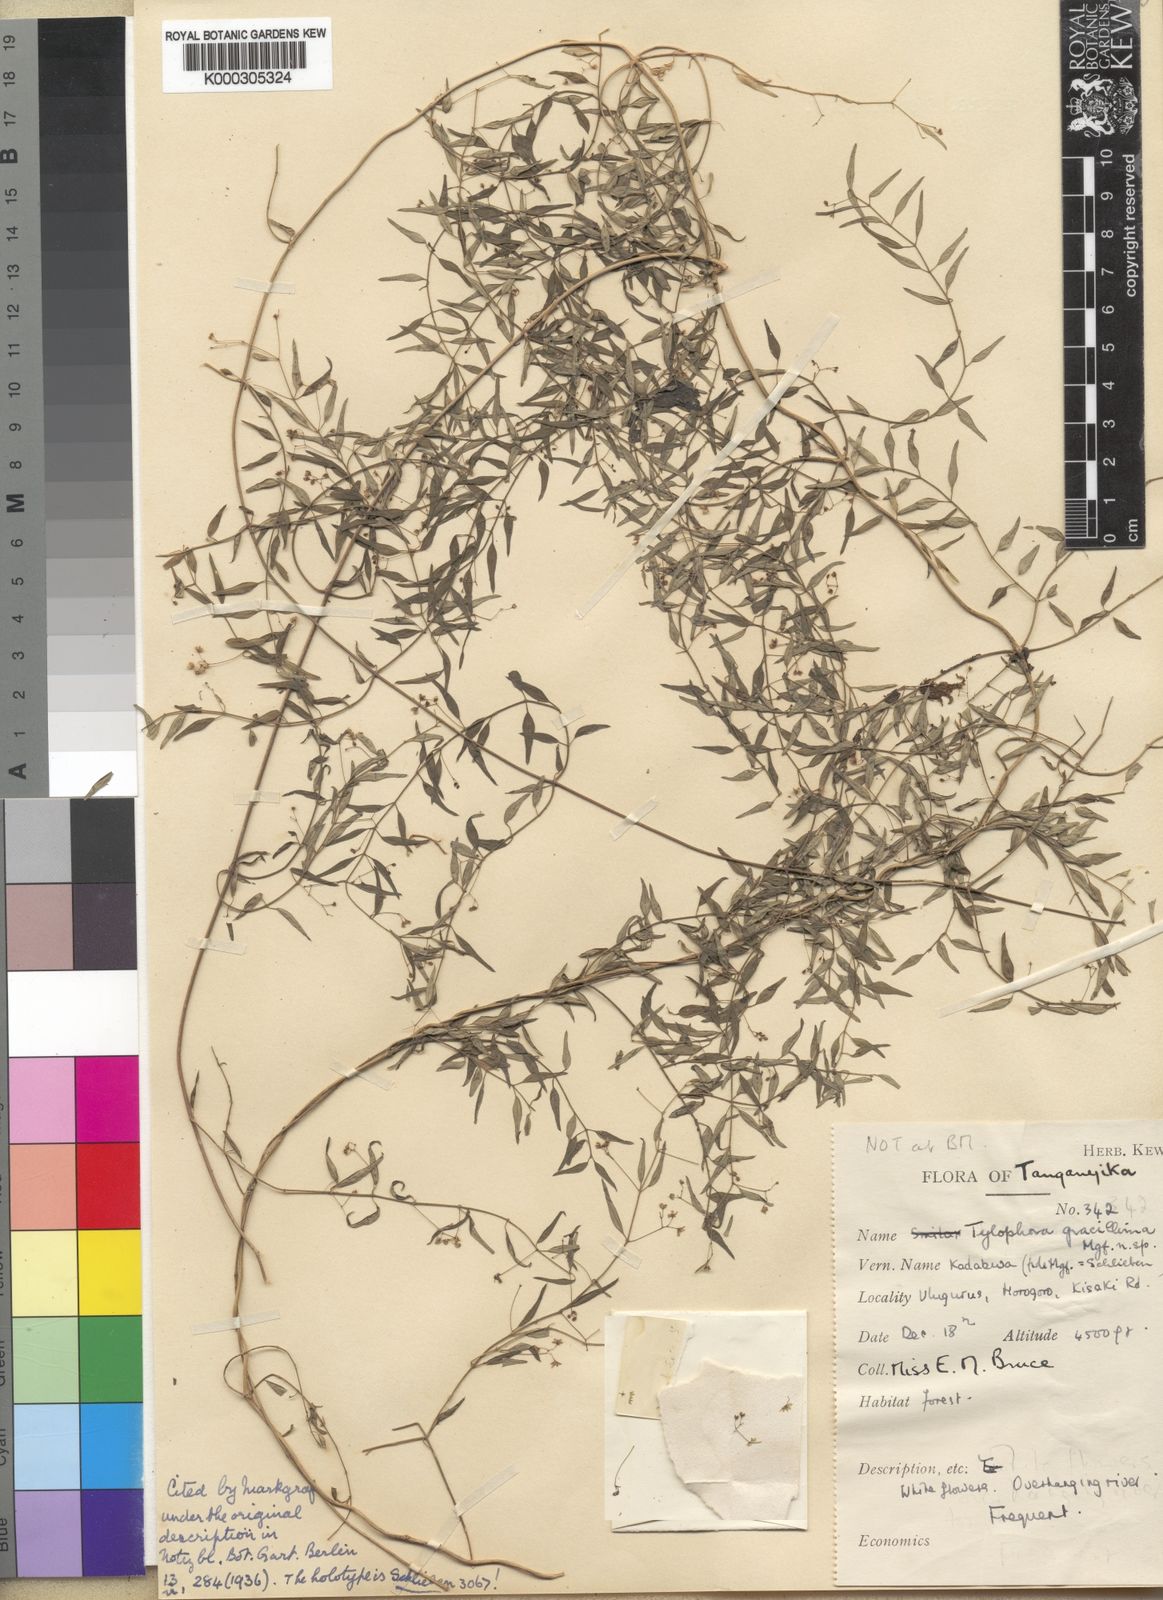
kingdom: Plantae
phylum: Tracheophyta
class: Magnoliopsida
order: Gentianales
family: Apocynaceae
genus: Vincetoxicum
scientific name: Vincetoxicum gracillimum
